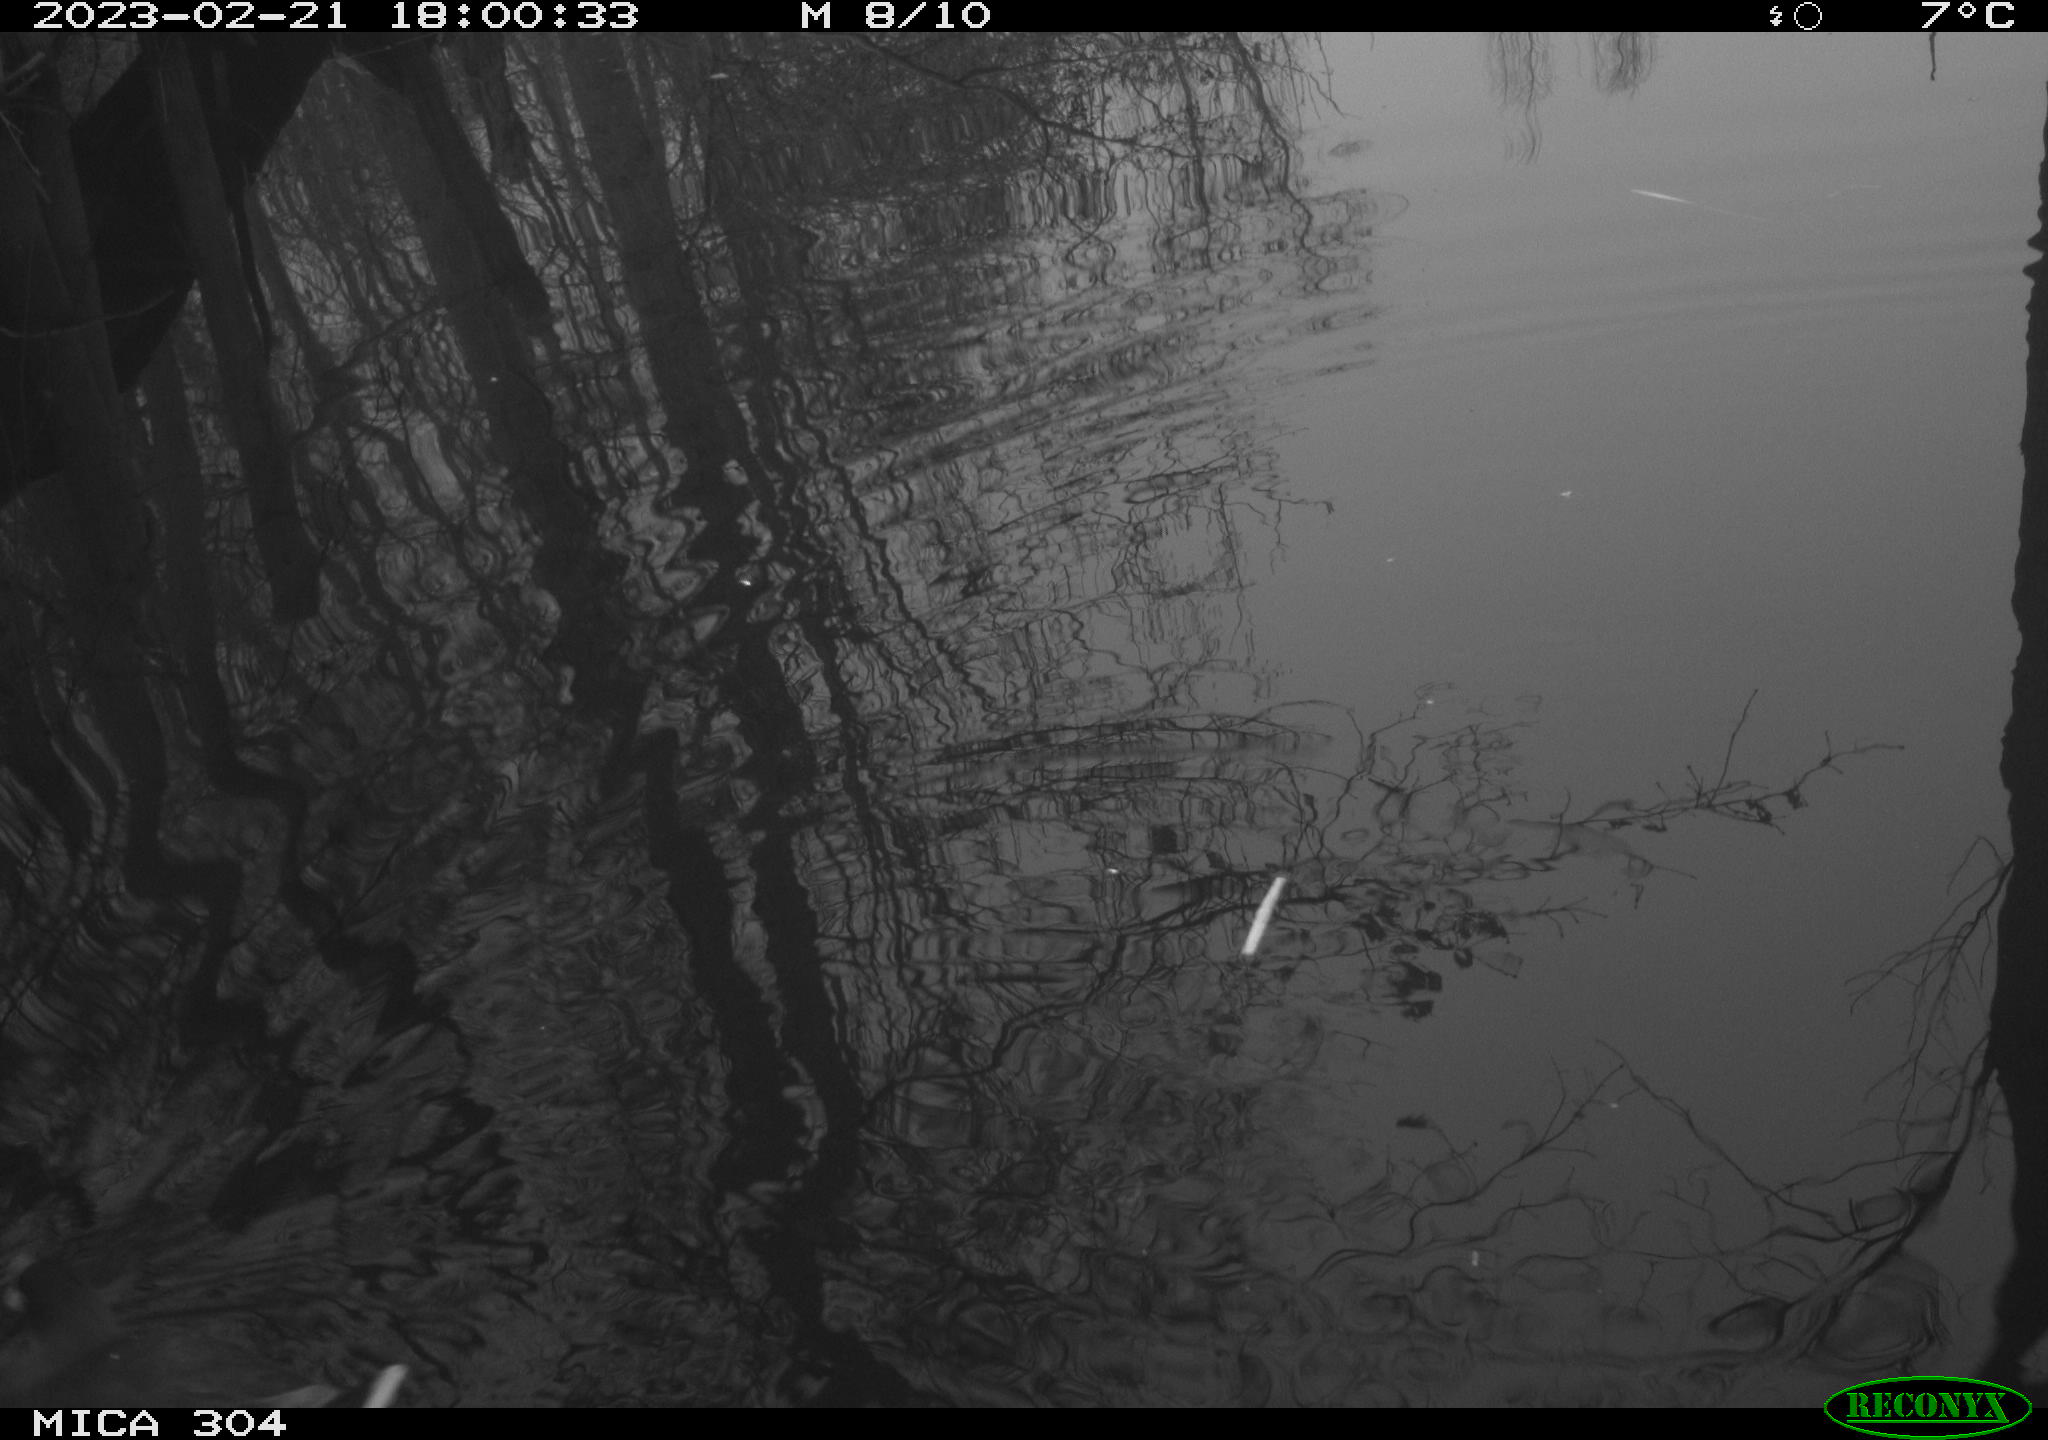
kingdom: Animalia
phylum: Chordata
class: Aves
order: Gruiformes
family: Rallidae
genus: Gallinula
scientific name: Gallinula chloropus
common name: Common moorhen
